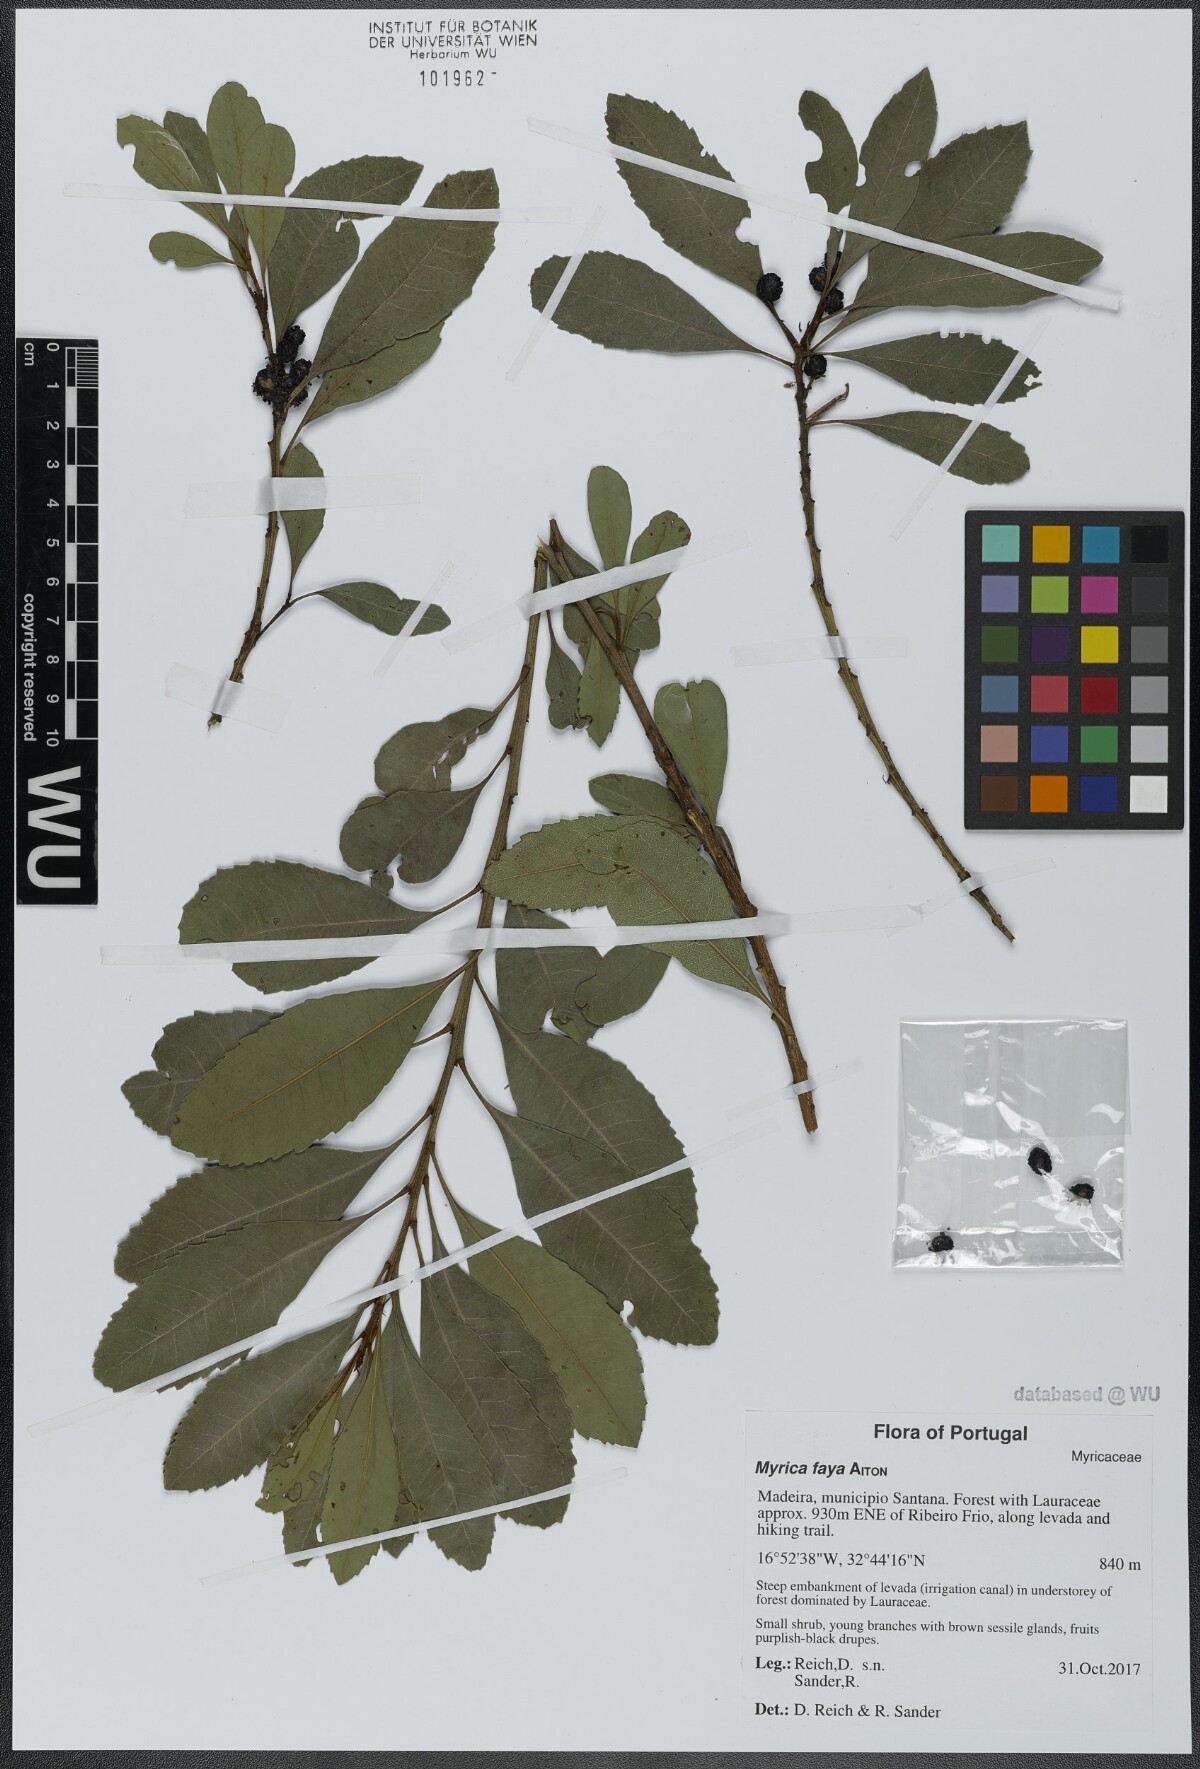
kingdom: Plantae
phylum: Tracheophyta
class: Magnoliopsida
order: Fagales
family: Myricaceae
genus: Morella
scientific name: Morella faya
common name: Firetree
